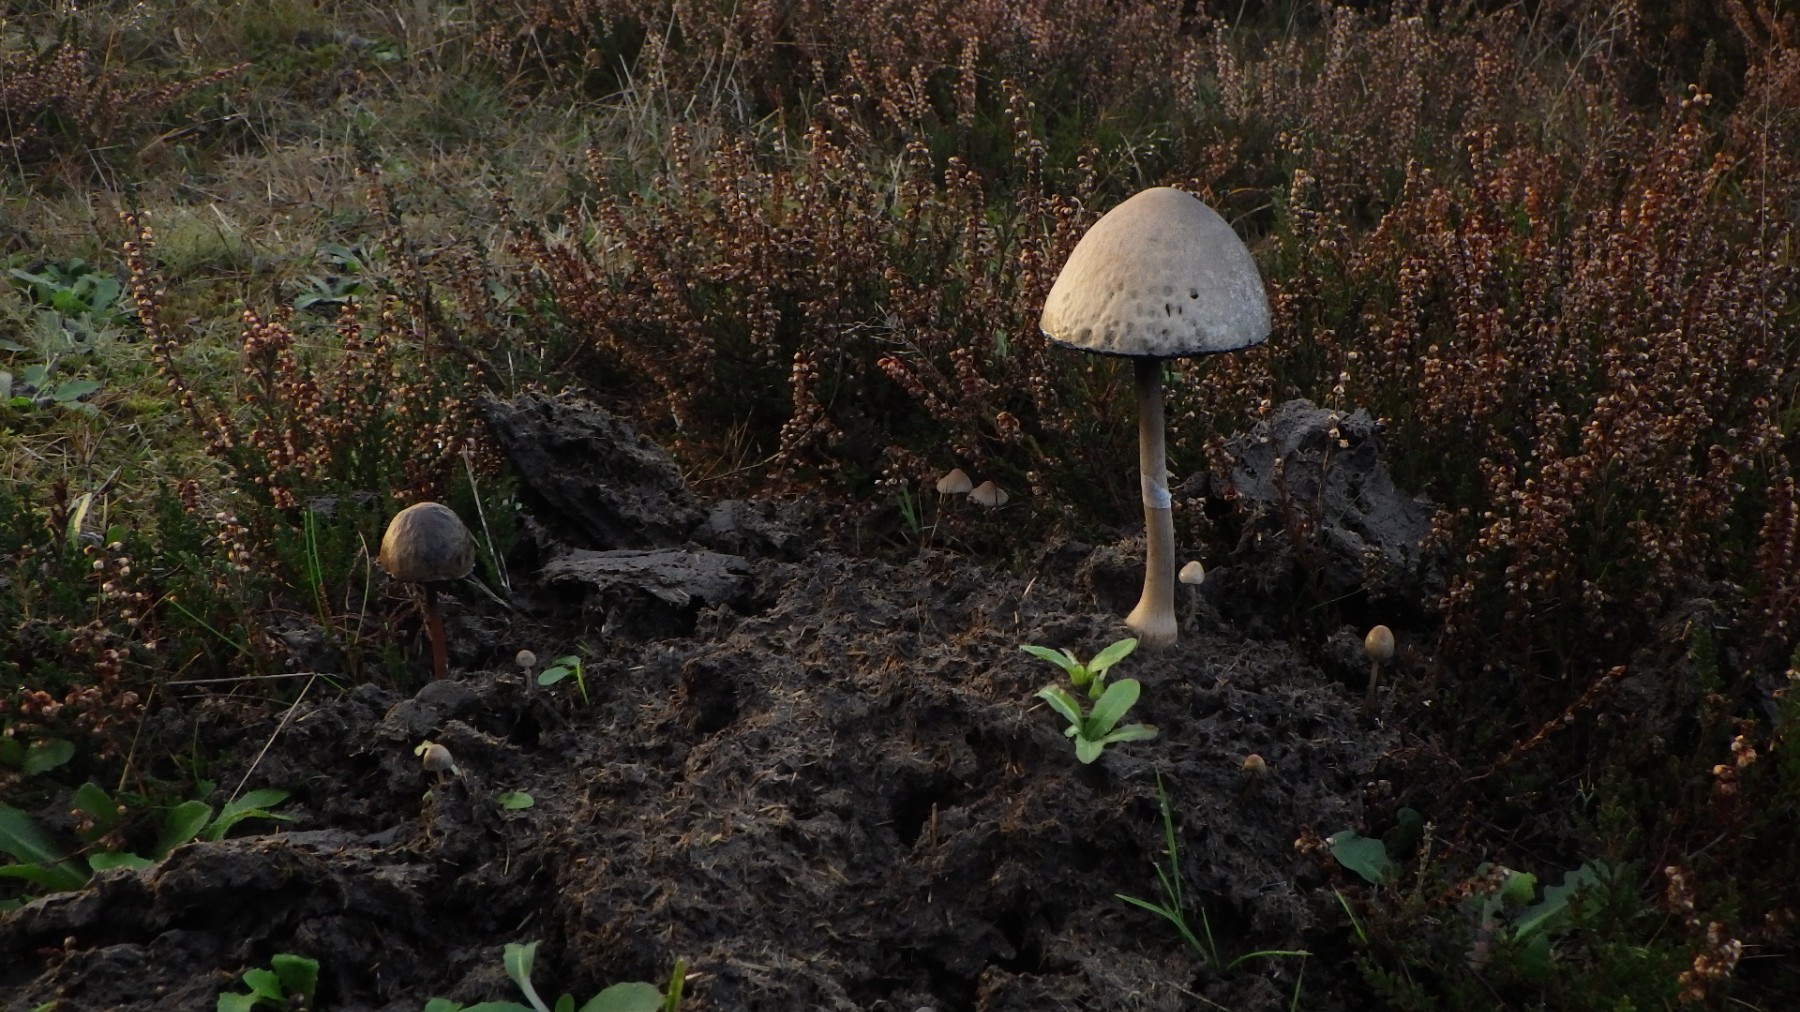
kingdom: Fungi
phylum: Basidiomycota
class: Agaricomycetes
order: Agaricales
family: Bolbitiaceae
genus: Panaeolus
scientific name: Panaeolus semiovatus
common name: ring-glanshat
